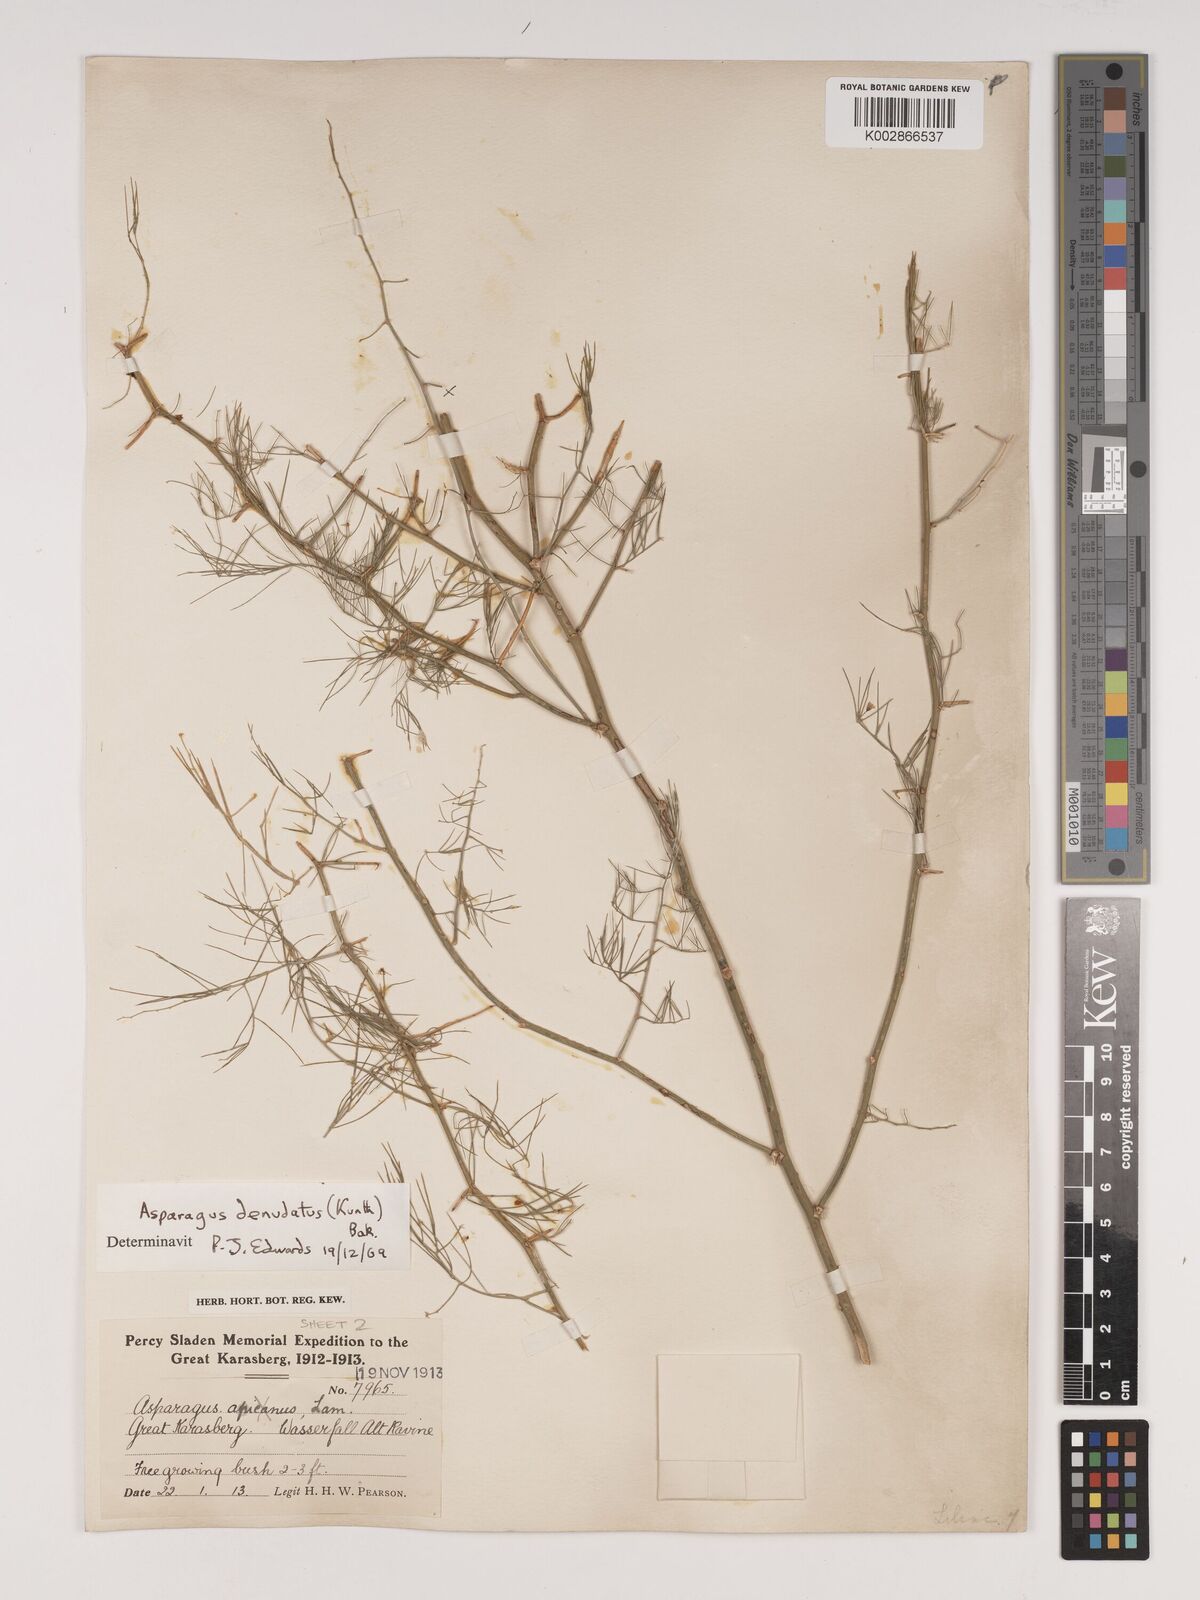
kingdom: Plantae
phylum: Tracheophyta
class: Liliopsida
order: Asparagales
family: Asparagaceae
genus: Asparagus
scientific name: Asparagus denudatus
